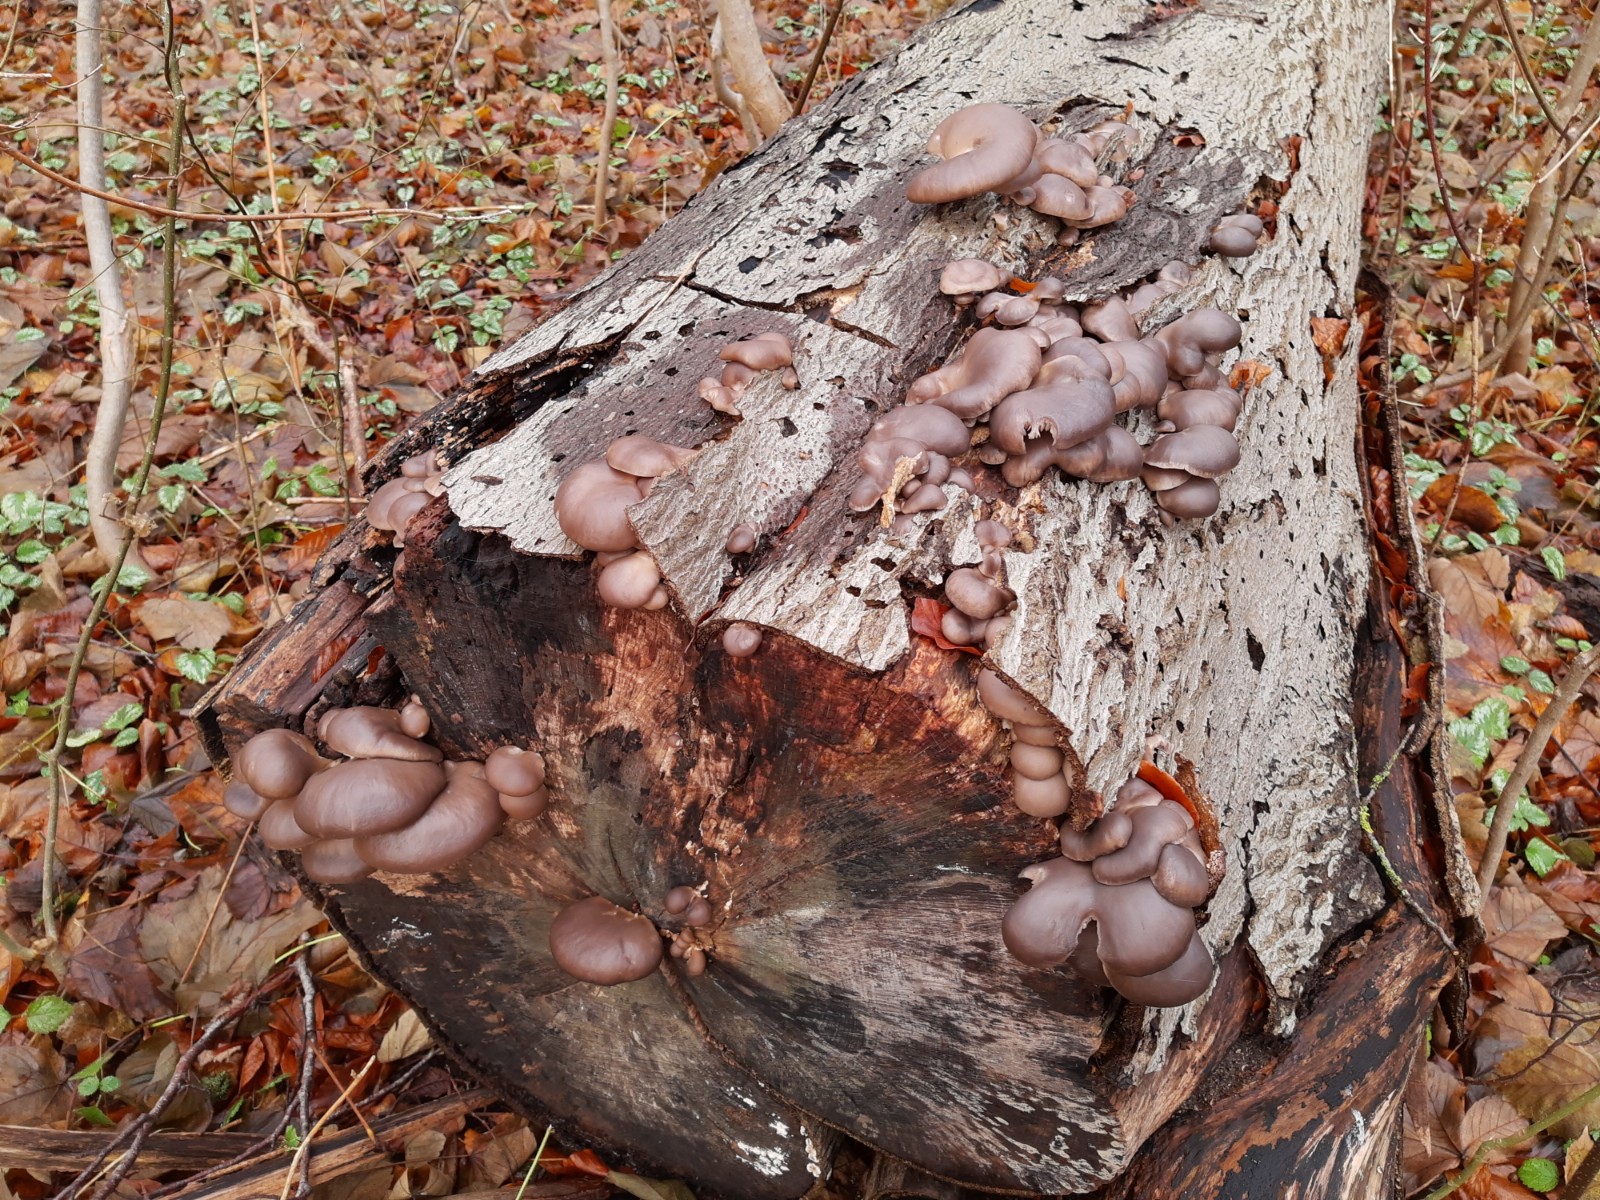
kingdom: Fungi
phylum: Basidiomycota
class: Agaricomycetes
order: Agaricales
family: Pleurotaceae
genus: Pleurotus
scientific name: Pleurotus ostreatus
